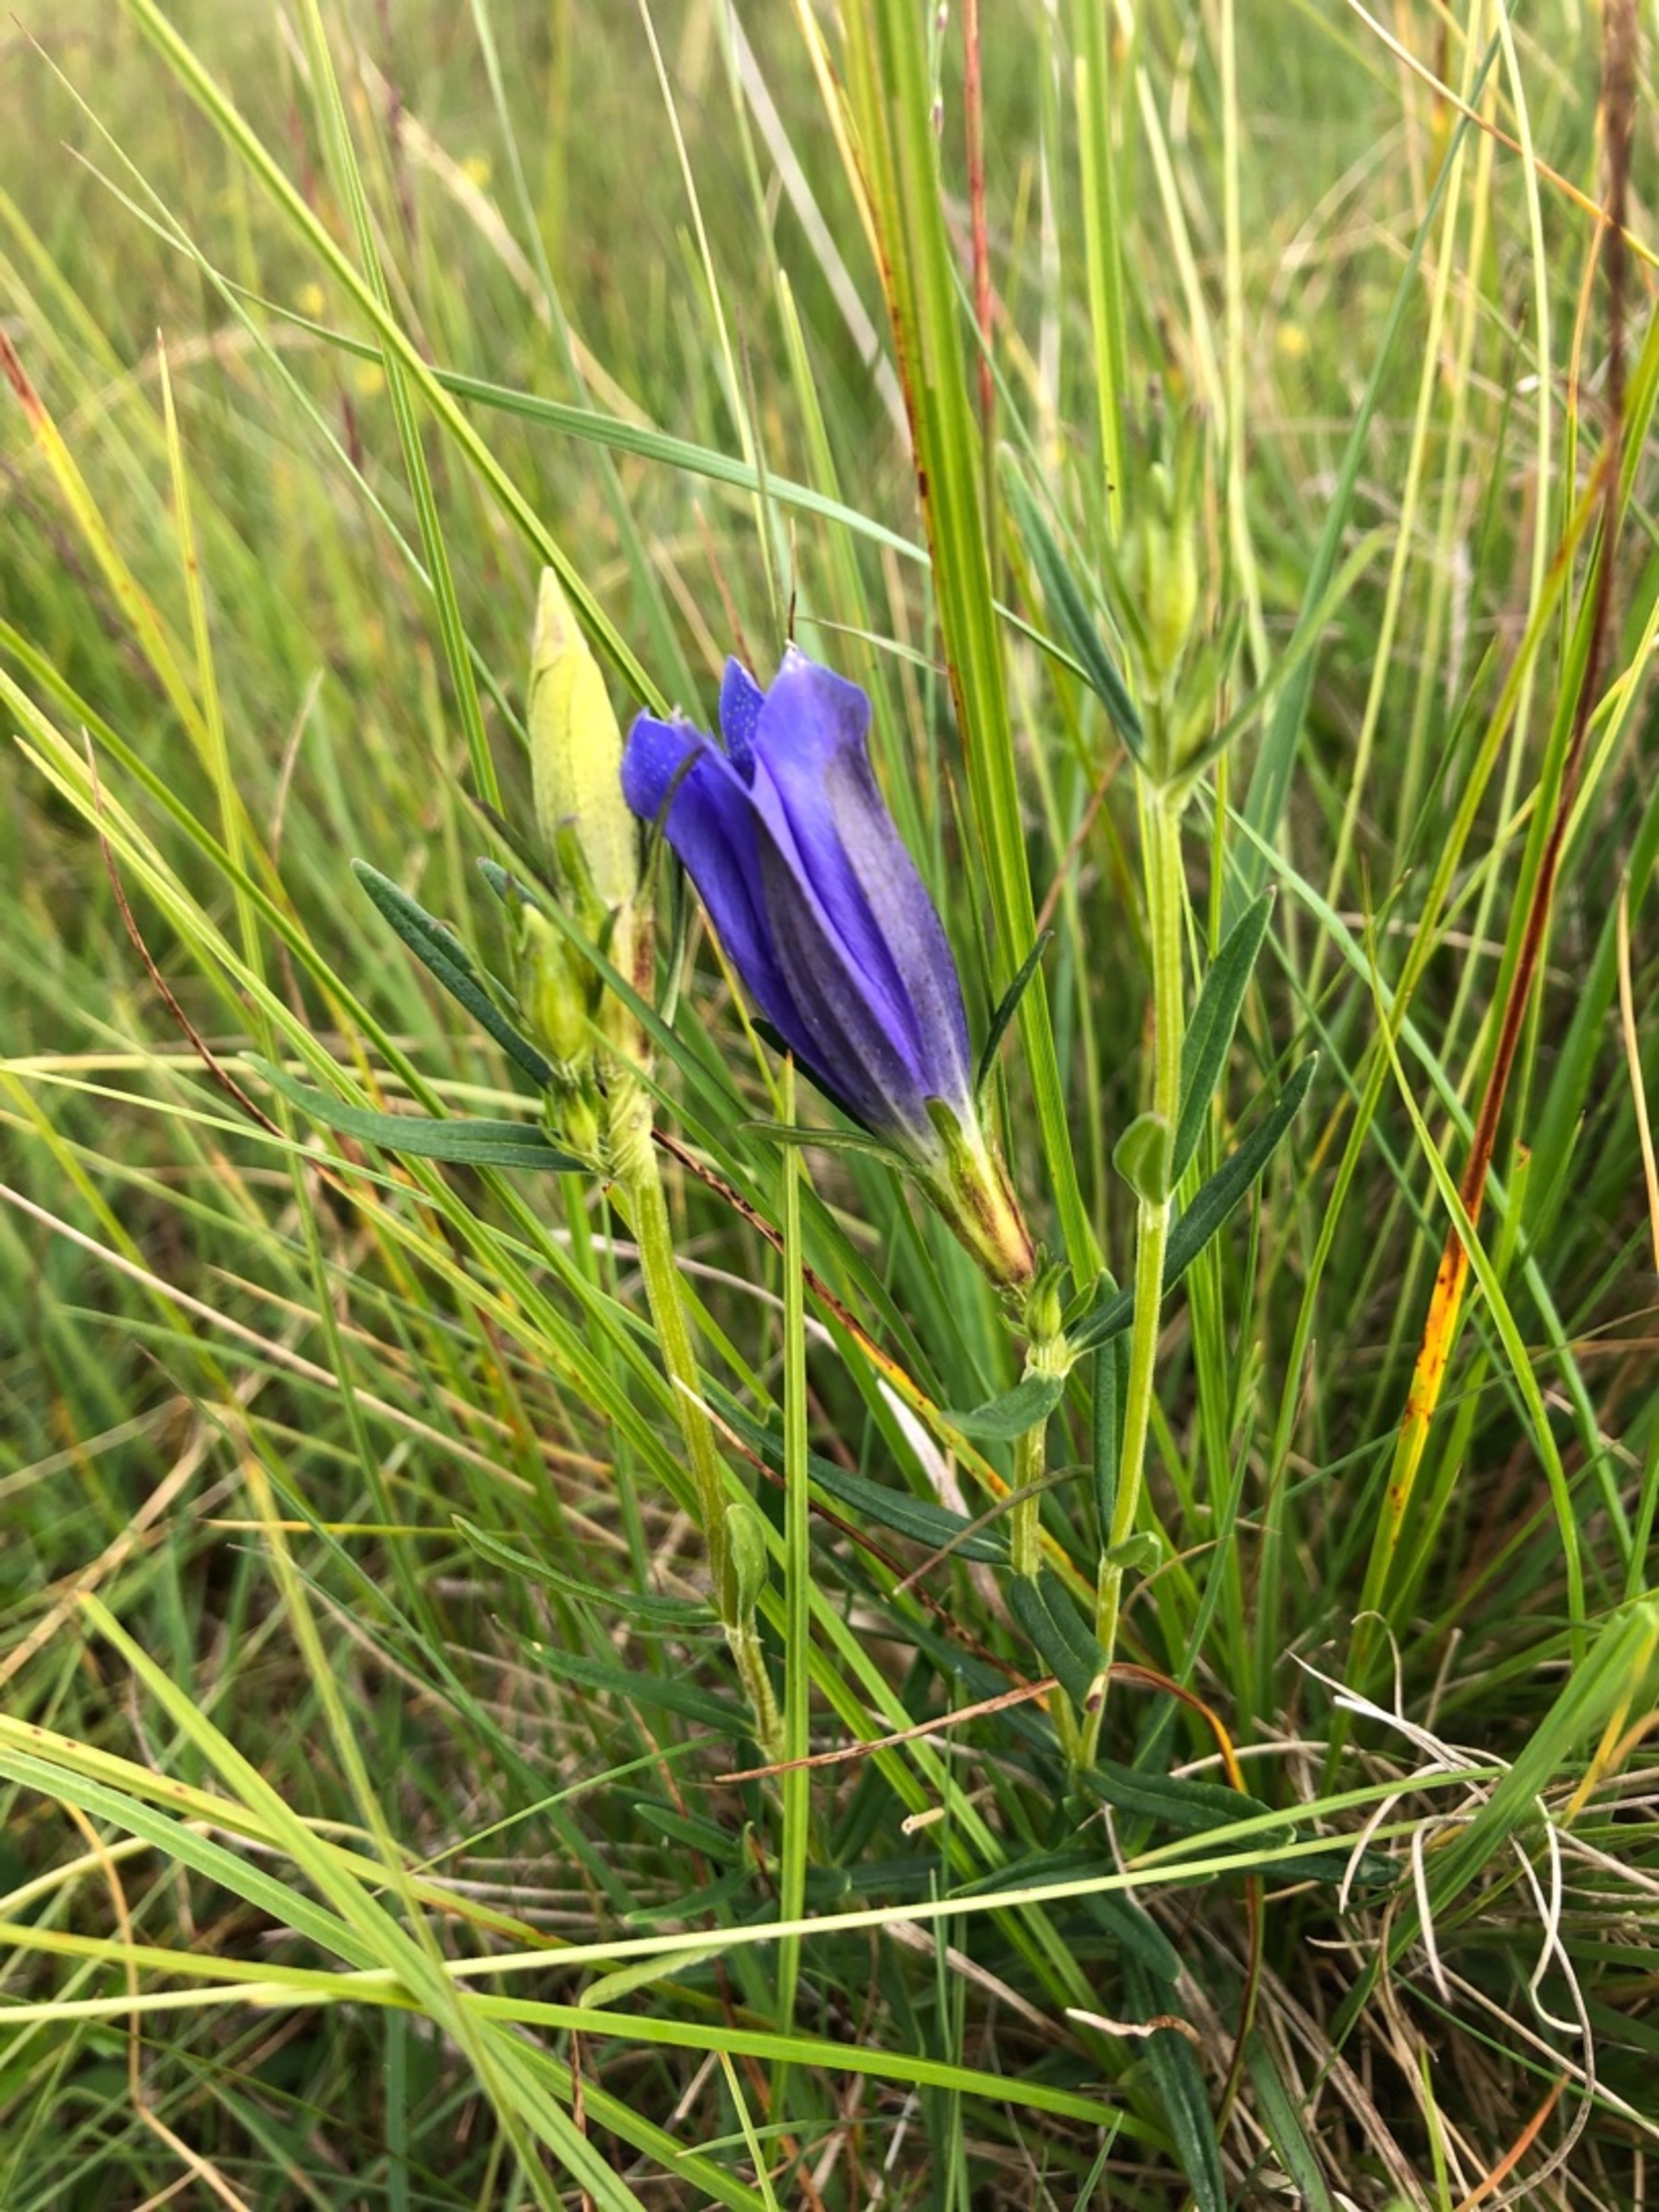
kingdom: Plantae
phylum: Tracheophyta
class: Magnoliopsida
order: Gentianales
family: Gentianaceae
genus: Gentiana
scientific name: Gentiana pneumonanthe
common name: Klokke-ensian
